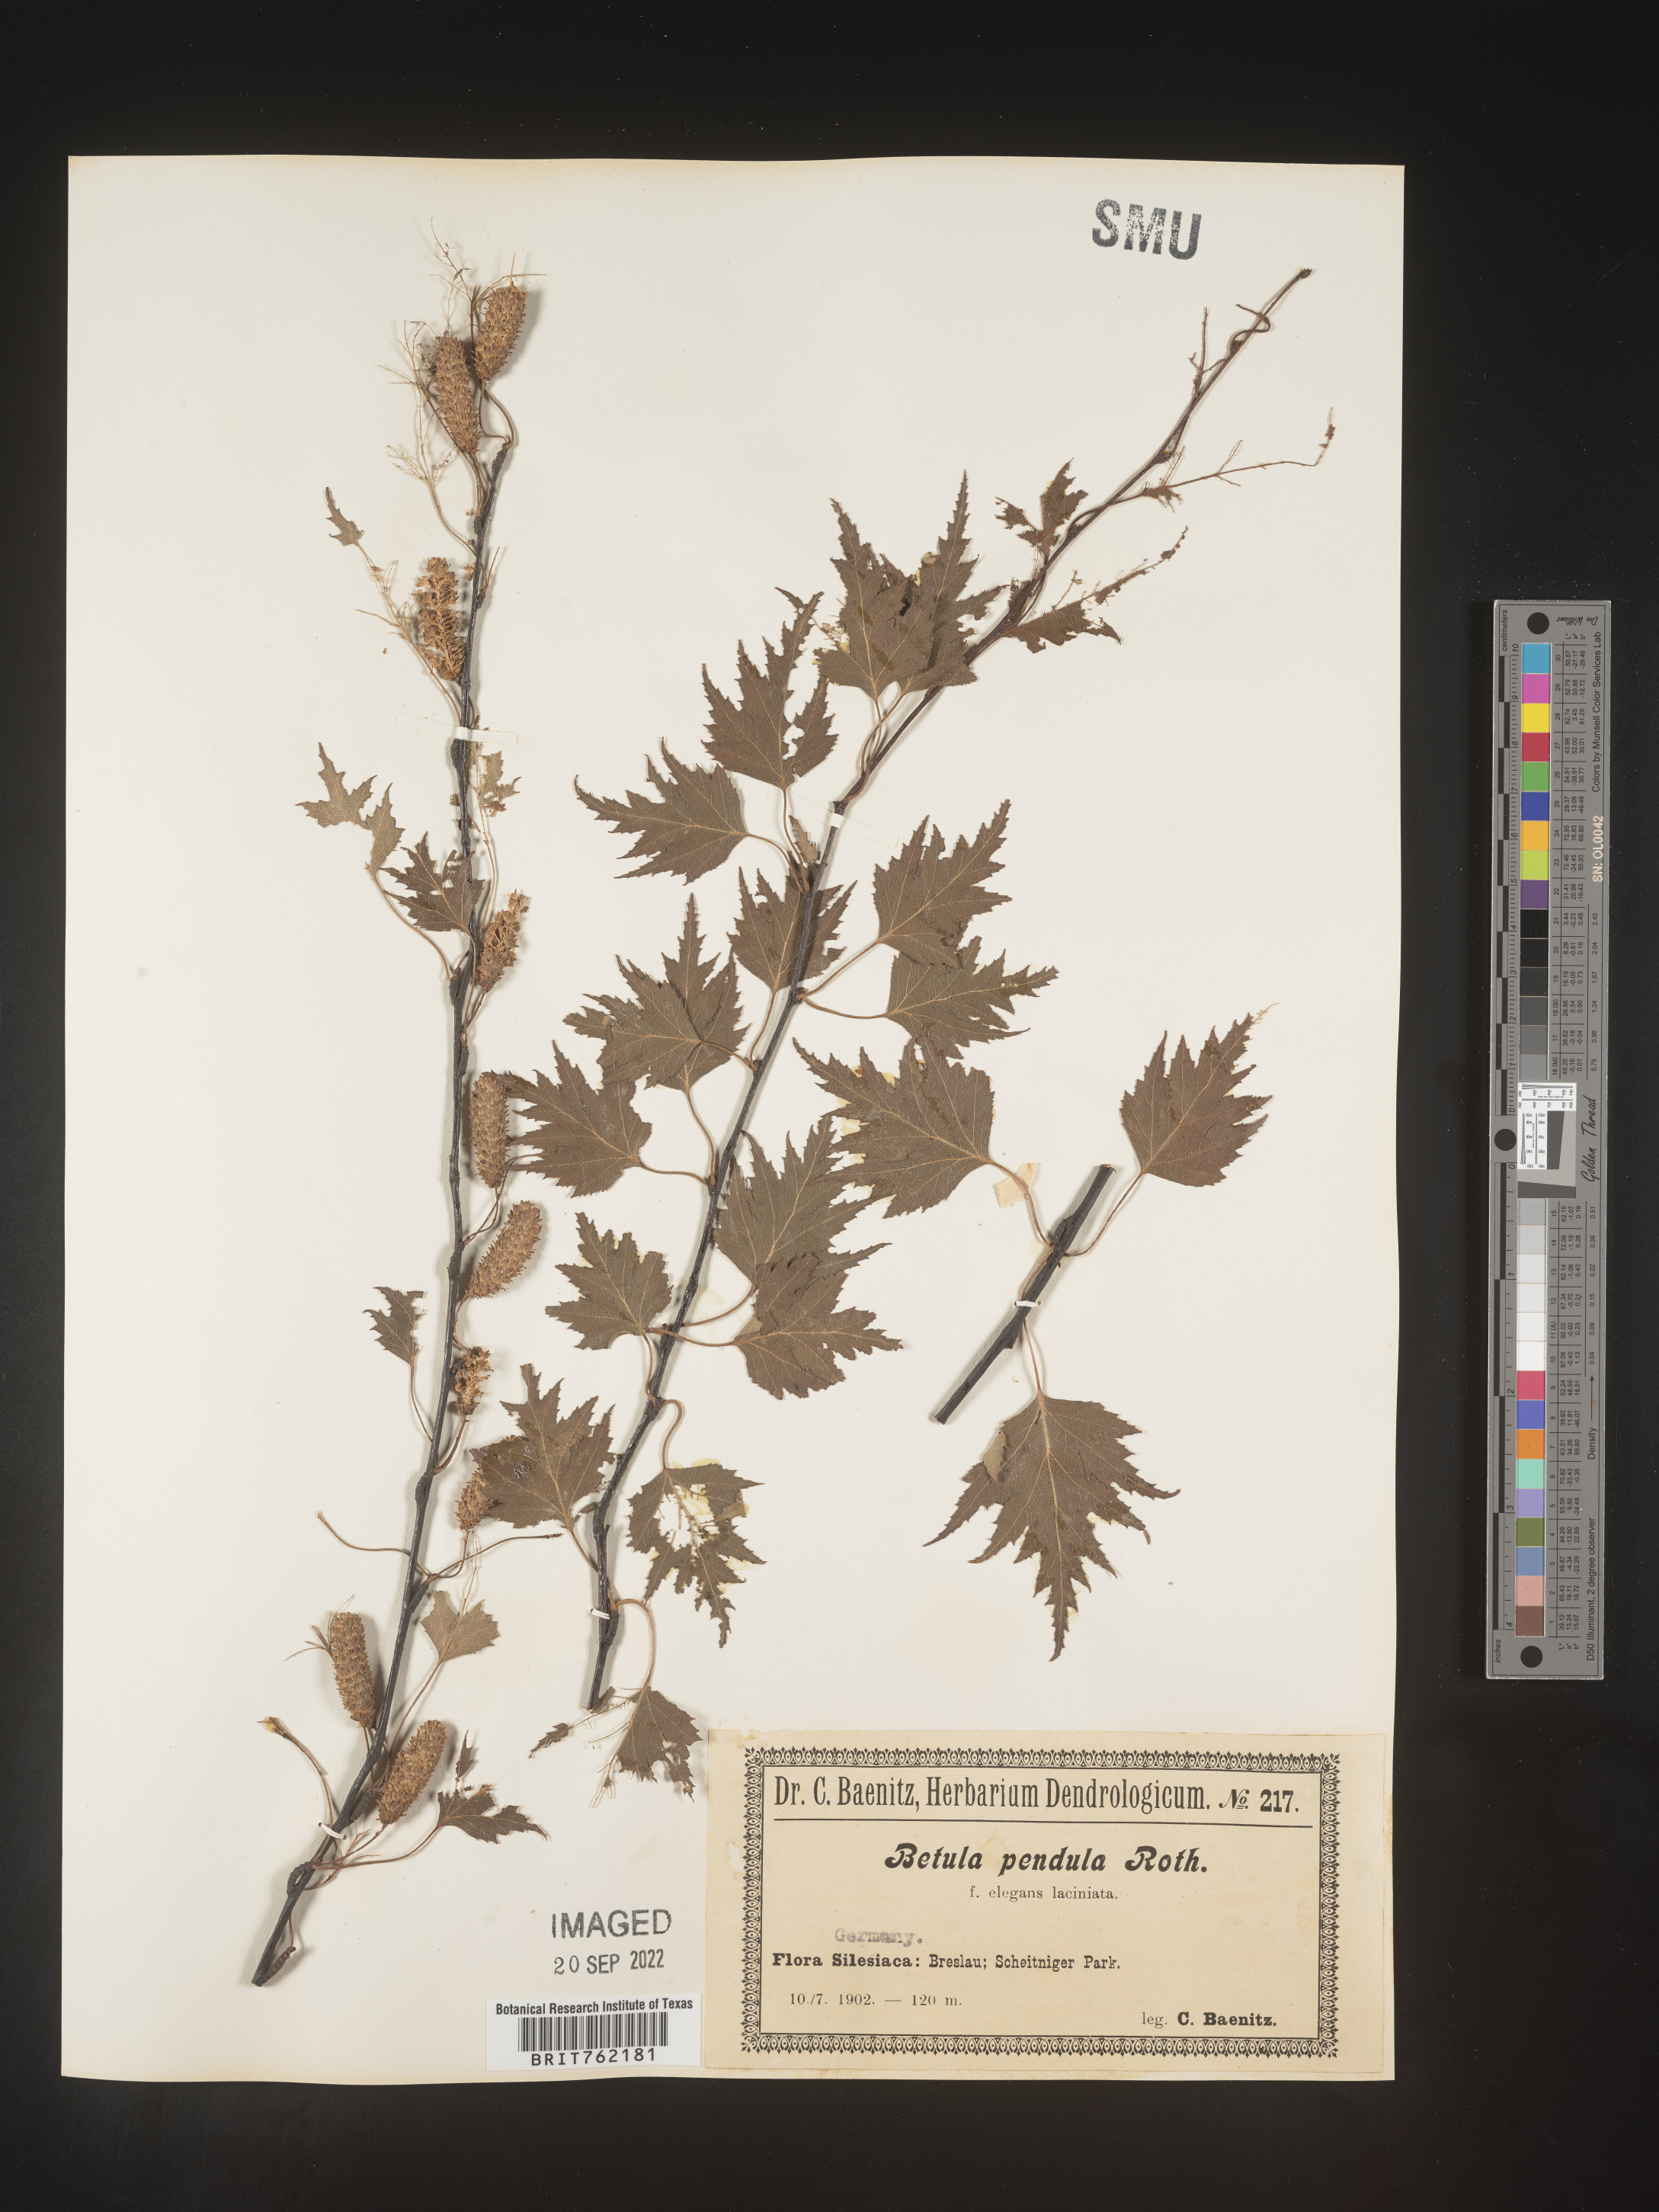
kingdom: Plantae
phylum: Tracheophyta
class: Magnoliopsida
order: Fagales
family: Betulaceae
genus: Betula
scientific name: Betula
